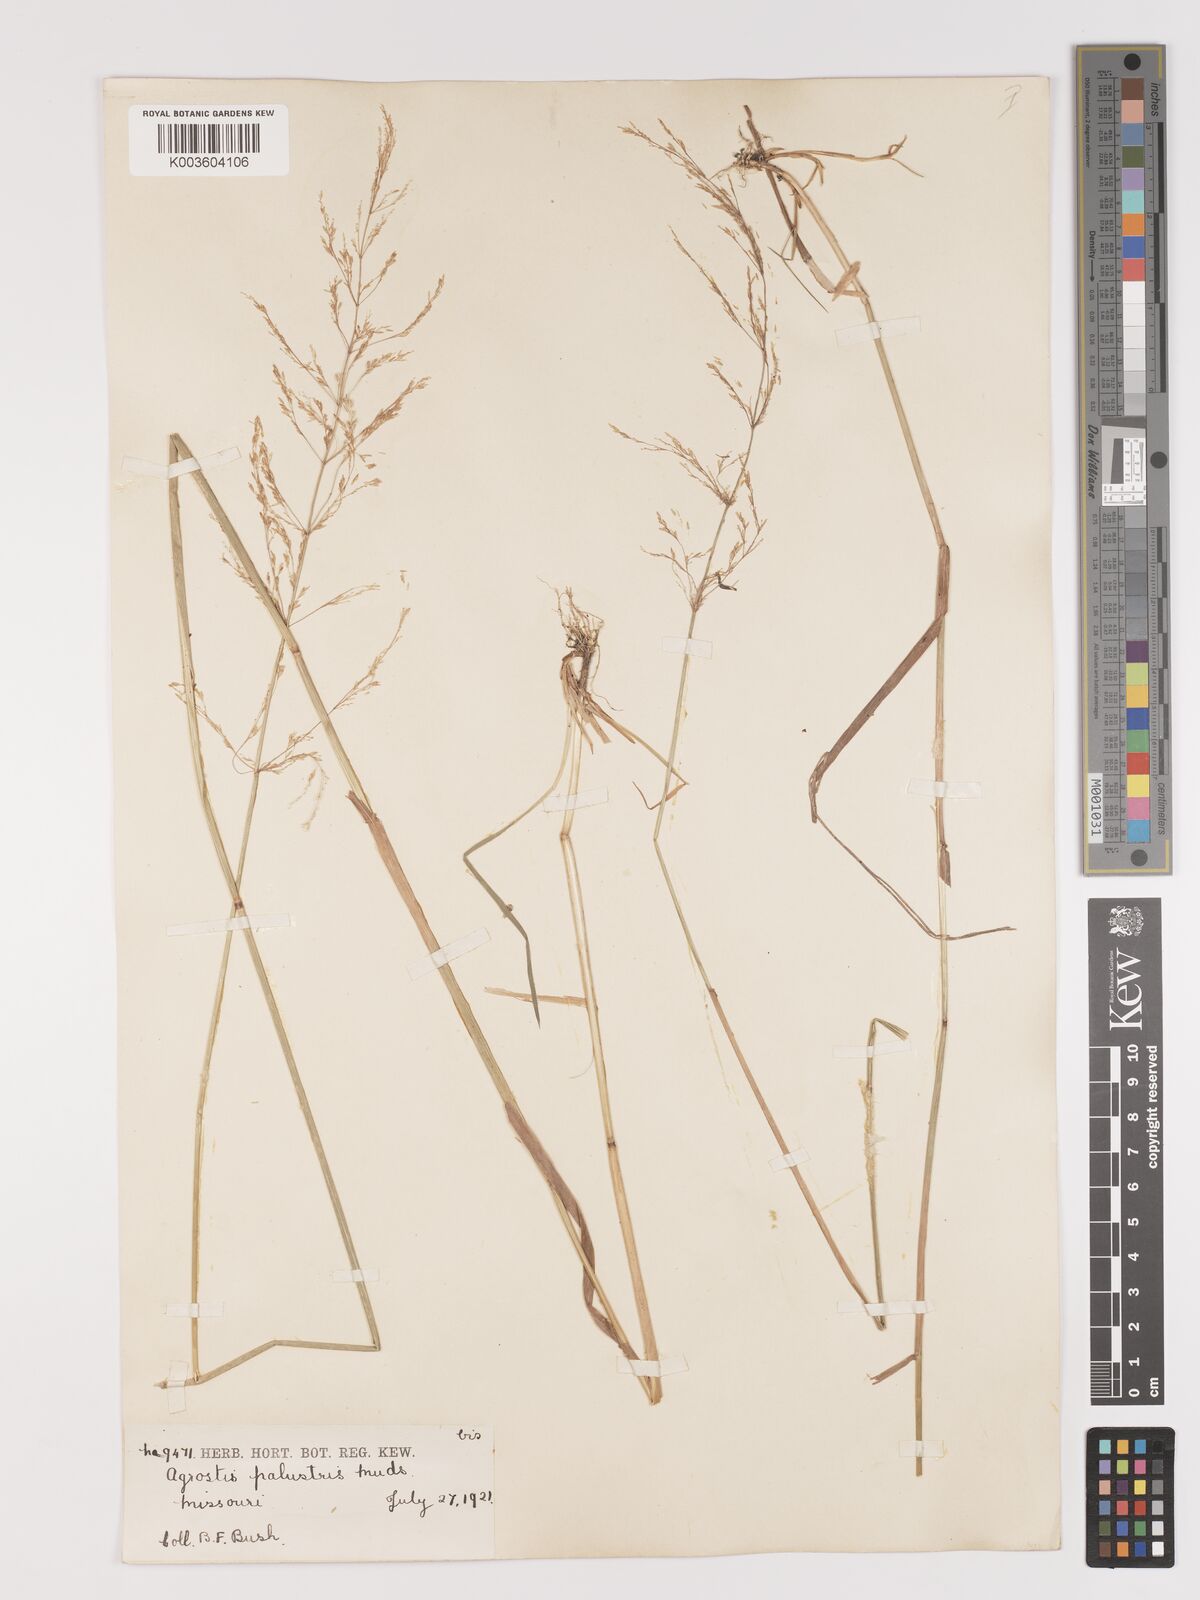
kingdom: Plantae
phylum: Tracheophyta
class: Liliopsida
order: Poales
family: Poaceae
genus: Agrostis
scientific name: Agrostis gigantea
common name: Black bent
